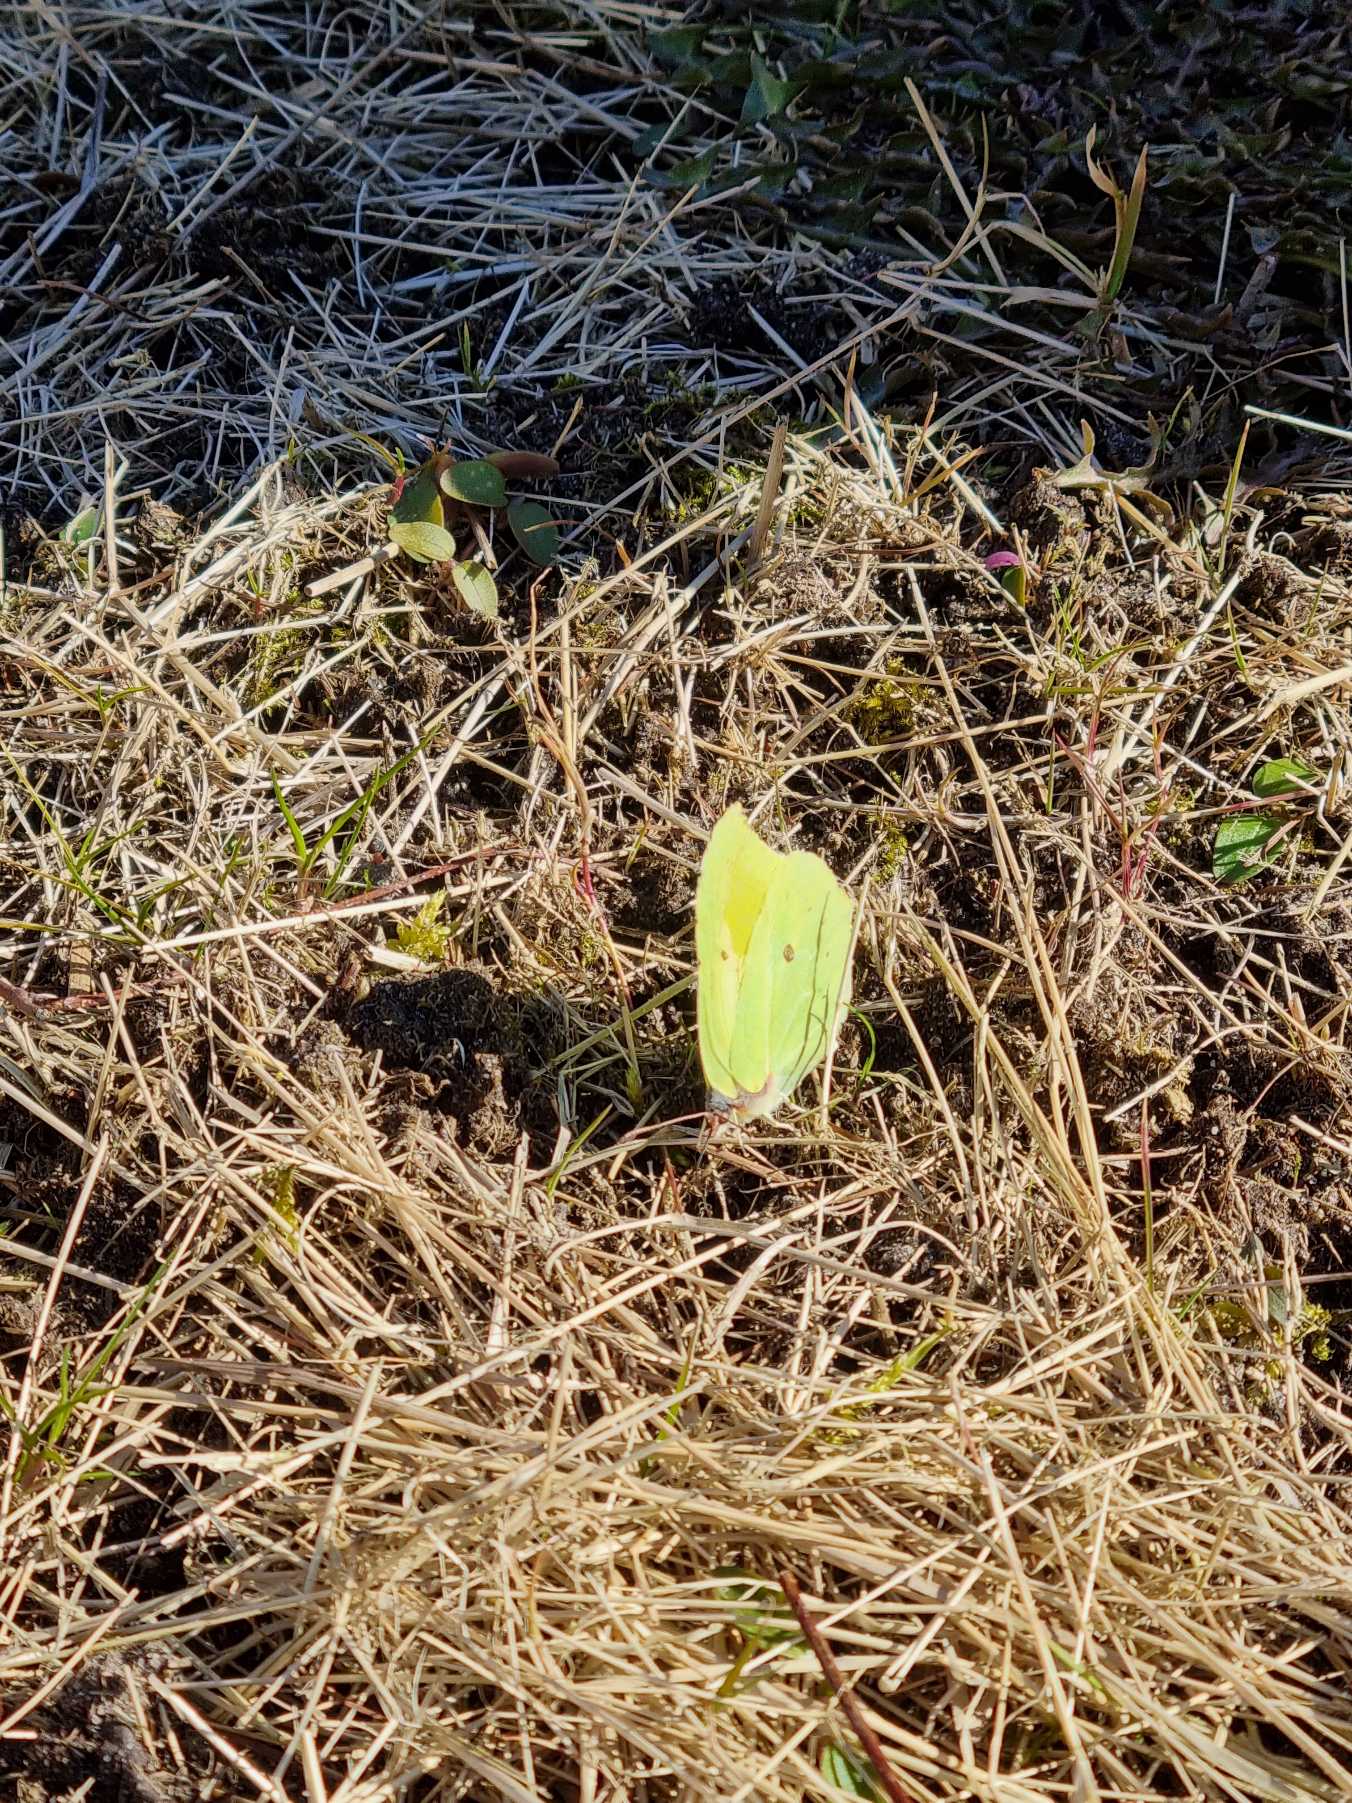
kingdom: Animalia
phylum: Arthropoda
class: Insecta
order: Lepidoptera
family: Pieridae
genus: Gonepteryx
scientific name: Gonepteryx rhamni
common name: Citronsommerfugl
